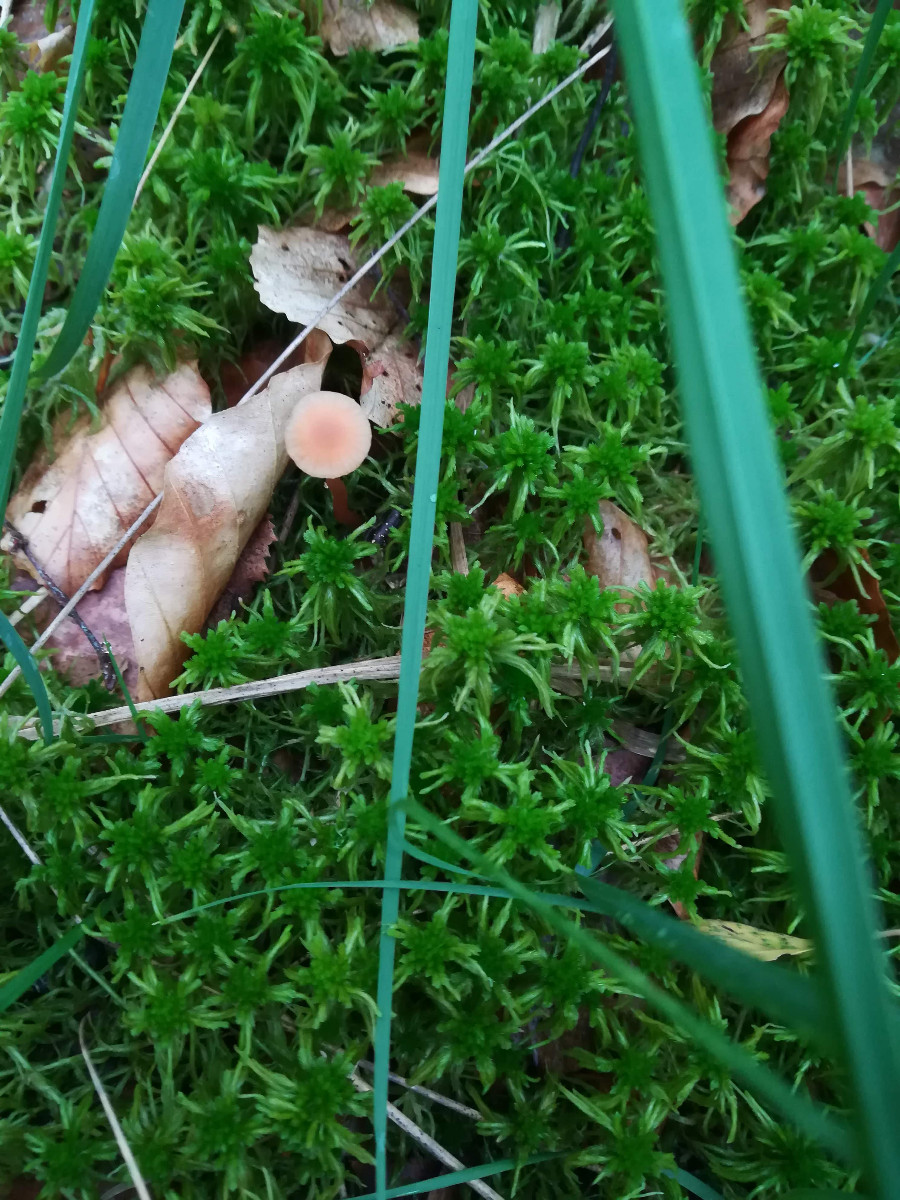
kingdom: Fungi
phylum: Basidiomycota
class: Agaricomycetes
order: Agaricales
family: Hydnangiaceae
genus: Laccaria
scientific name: Laccaria laccata
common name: rød ametysthat
